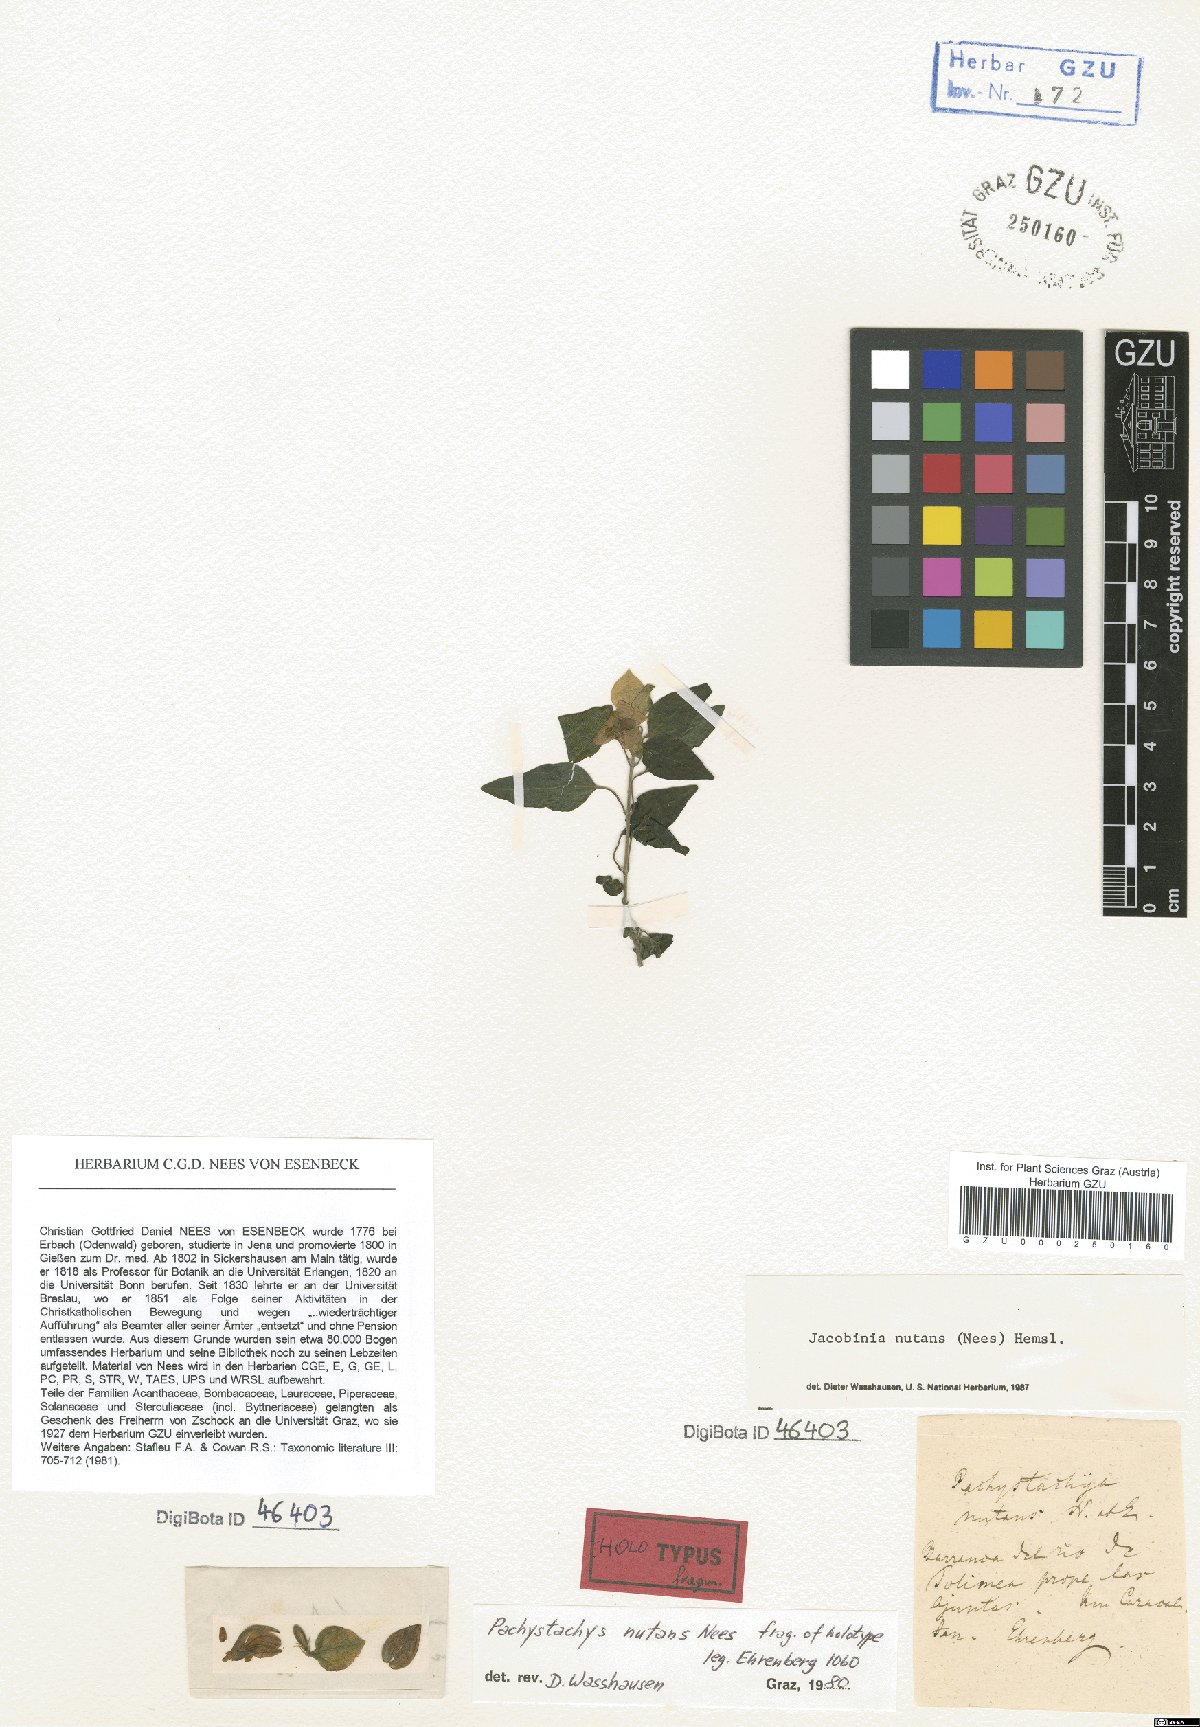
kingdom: Plantae
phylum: Tracheophyta
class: Magnoliopsida
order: Lamiales
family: Acanthaceae
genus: Mirandea
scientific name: Mirandea nutans
